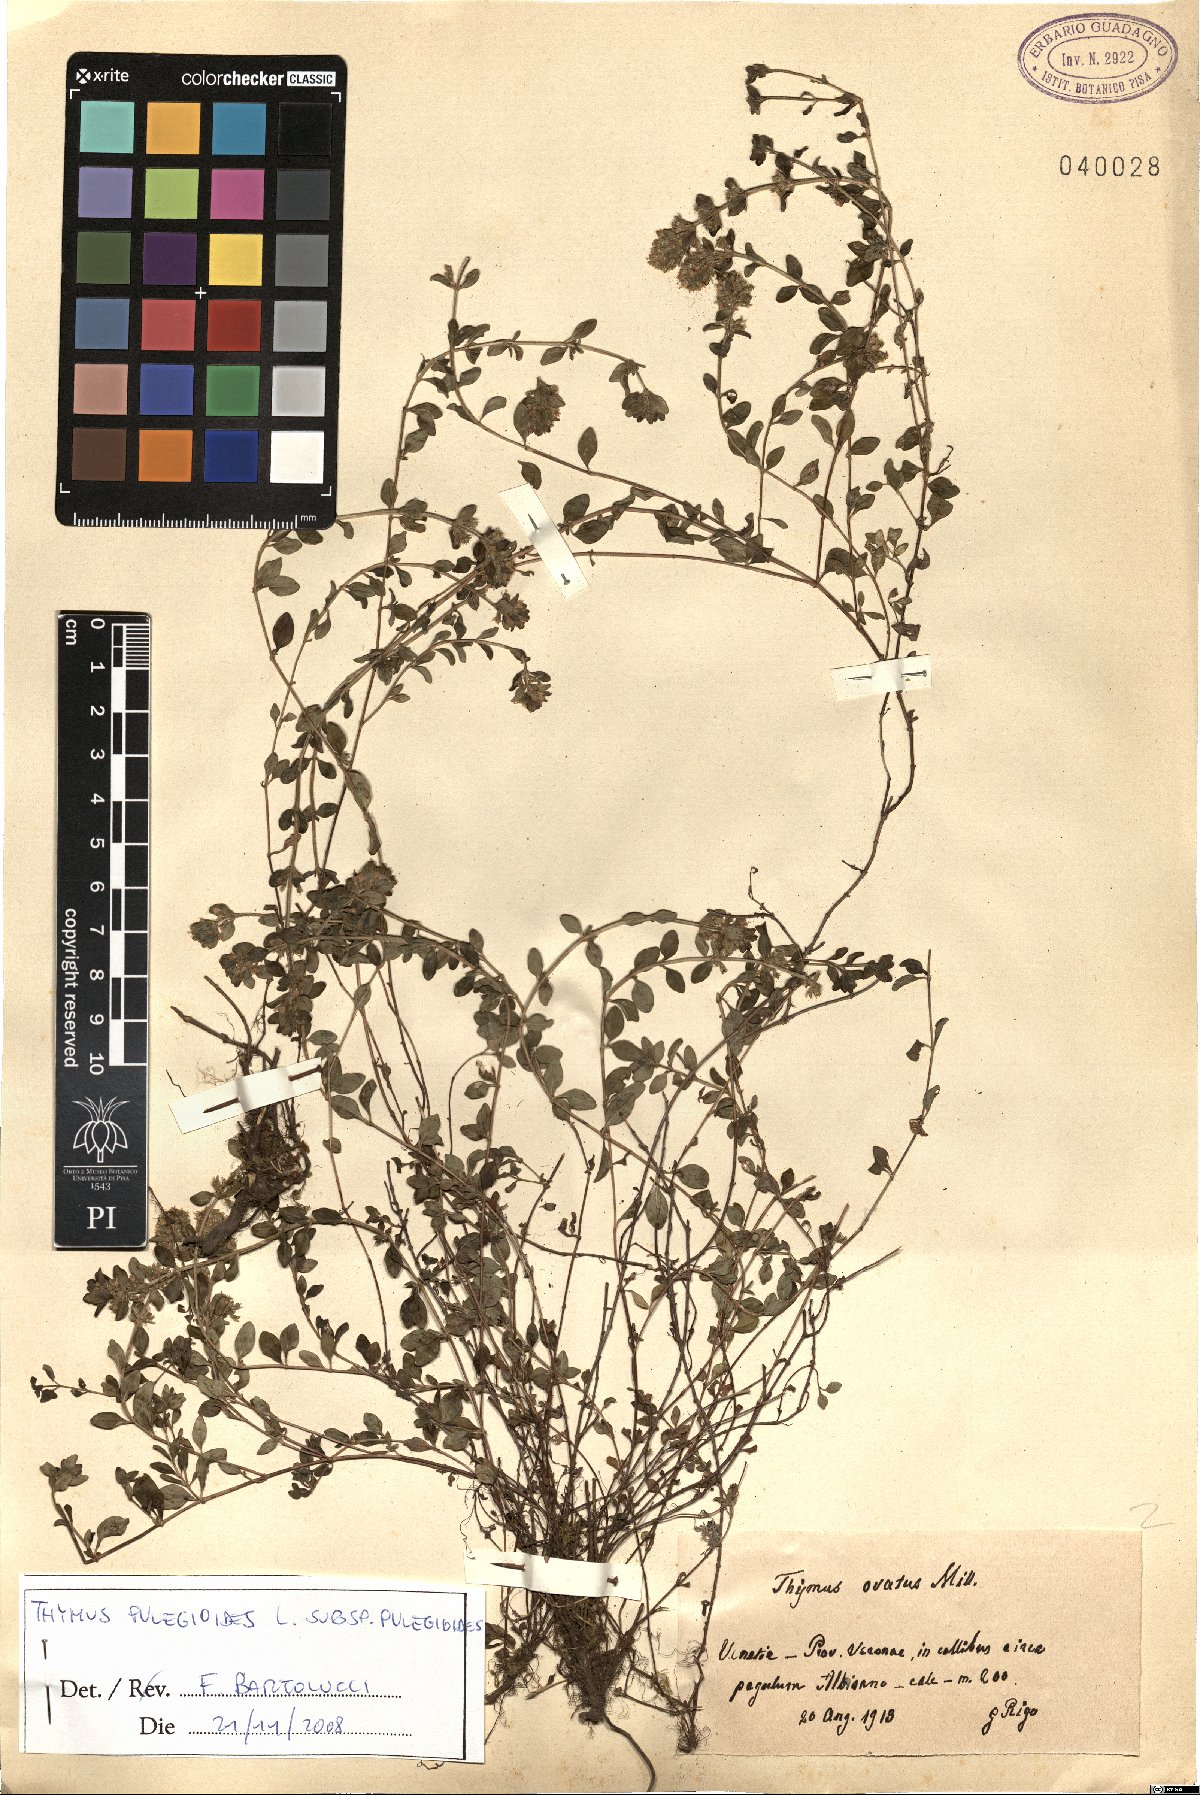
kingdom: Plantae
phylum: Tracheophyta
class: Magnoliopsida
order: Lamiales
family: Lamiaceae
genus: Thymus
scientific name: Thymus pulegioides
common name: Large thyme
